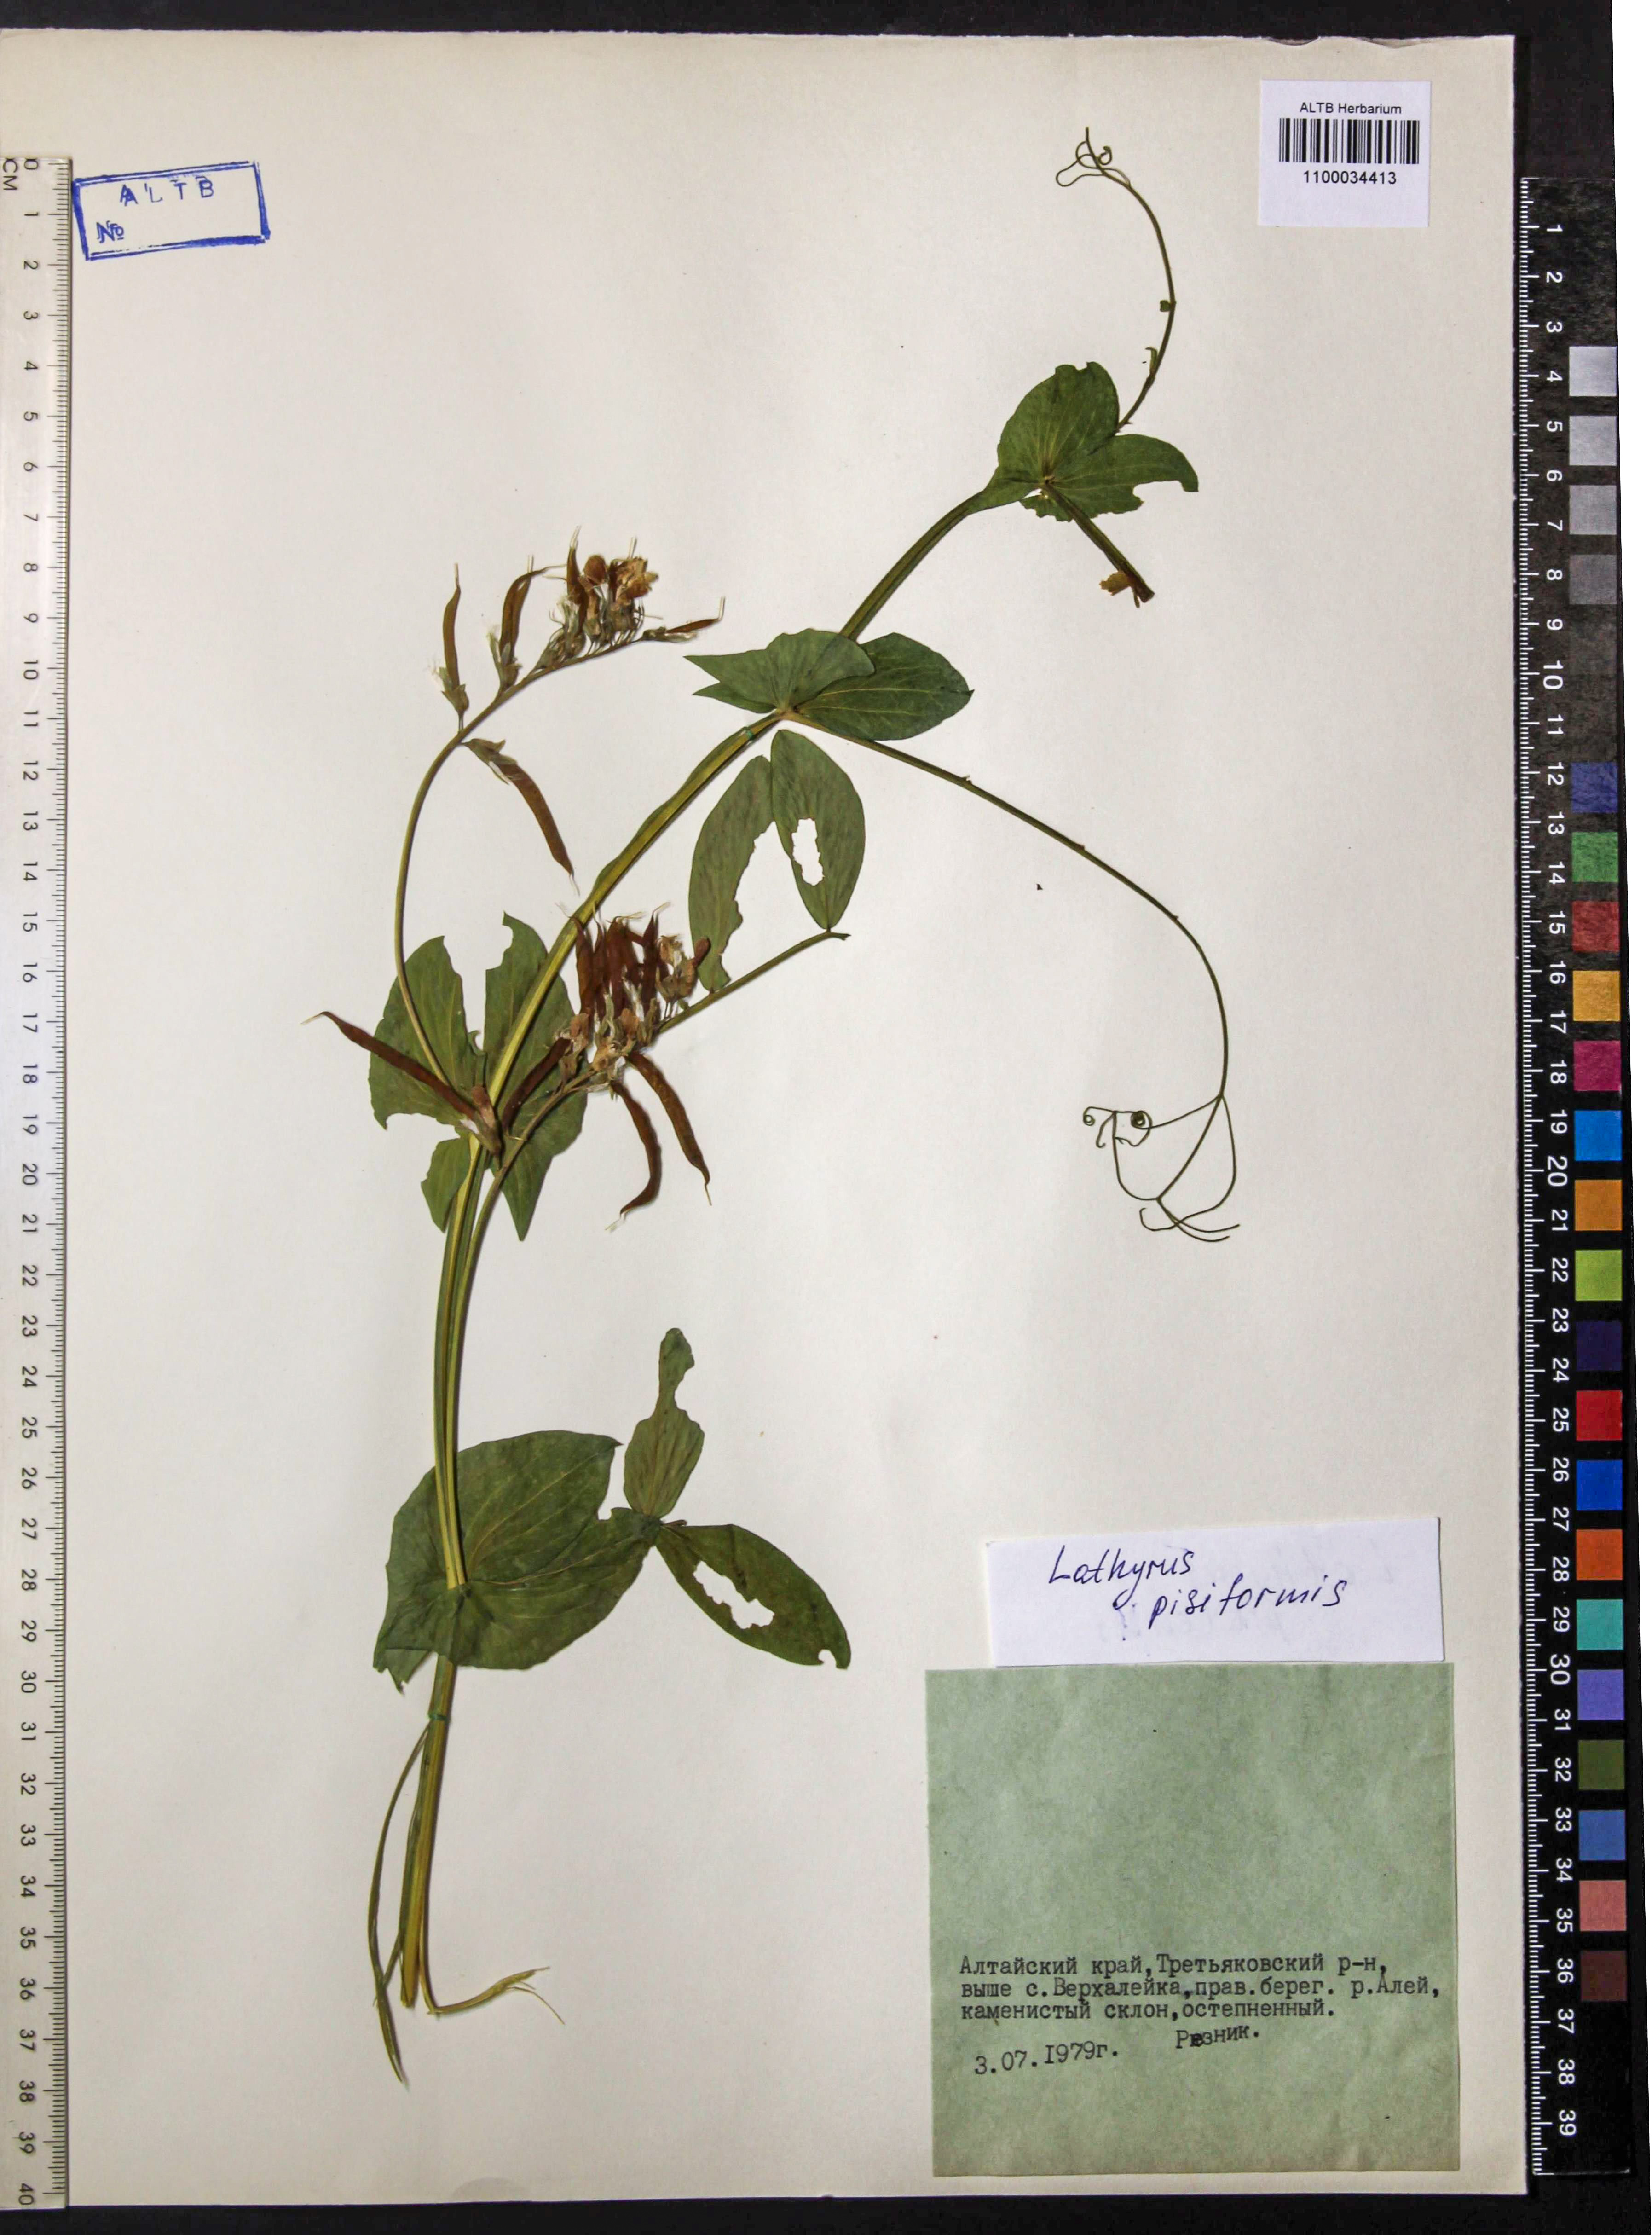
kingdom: Plantae
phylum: Tracheophyta
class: Magnoliopsida
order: Fabales
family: Fabaceae
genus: Lathyrus
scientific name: Lathyrus pisiformis
